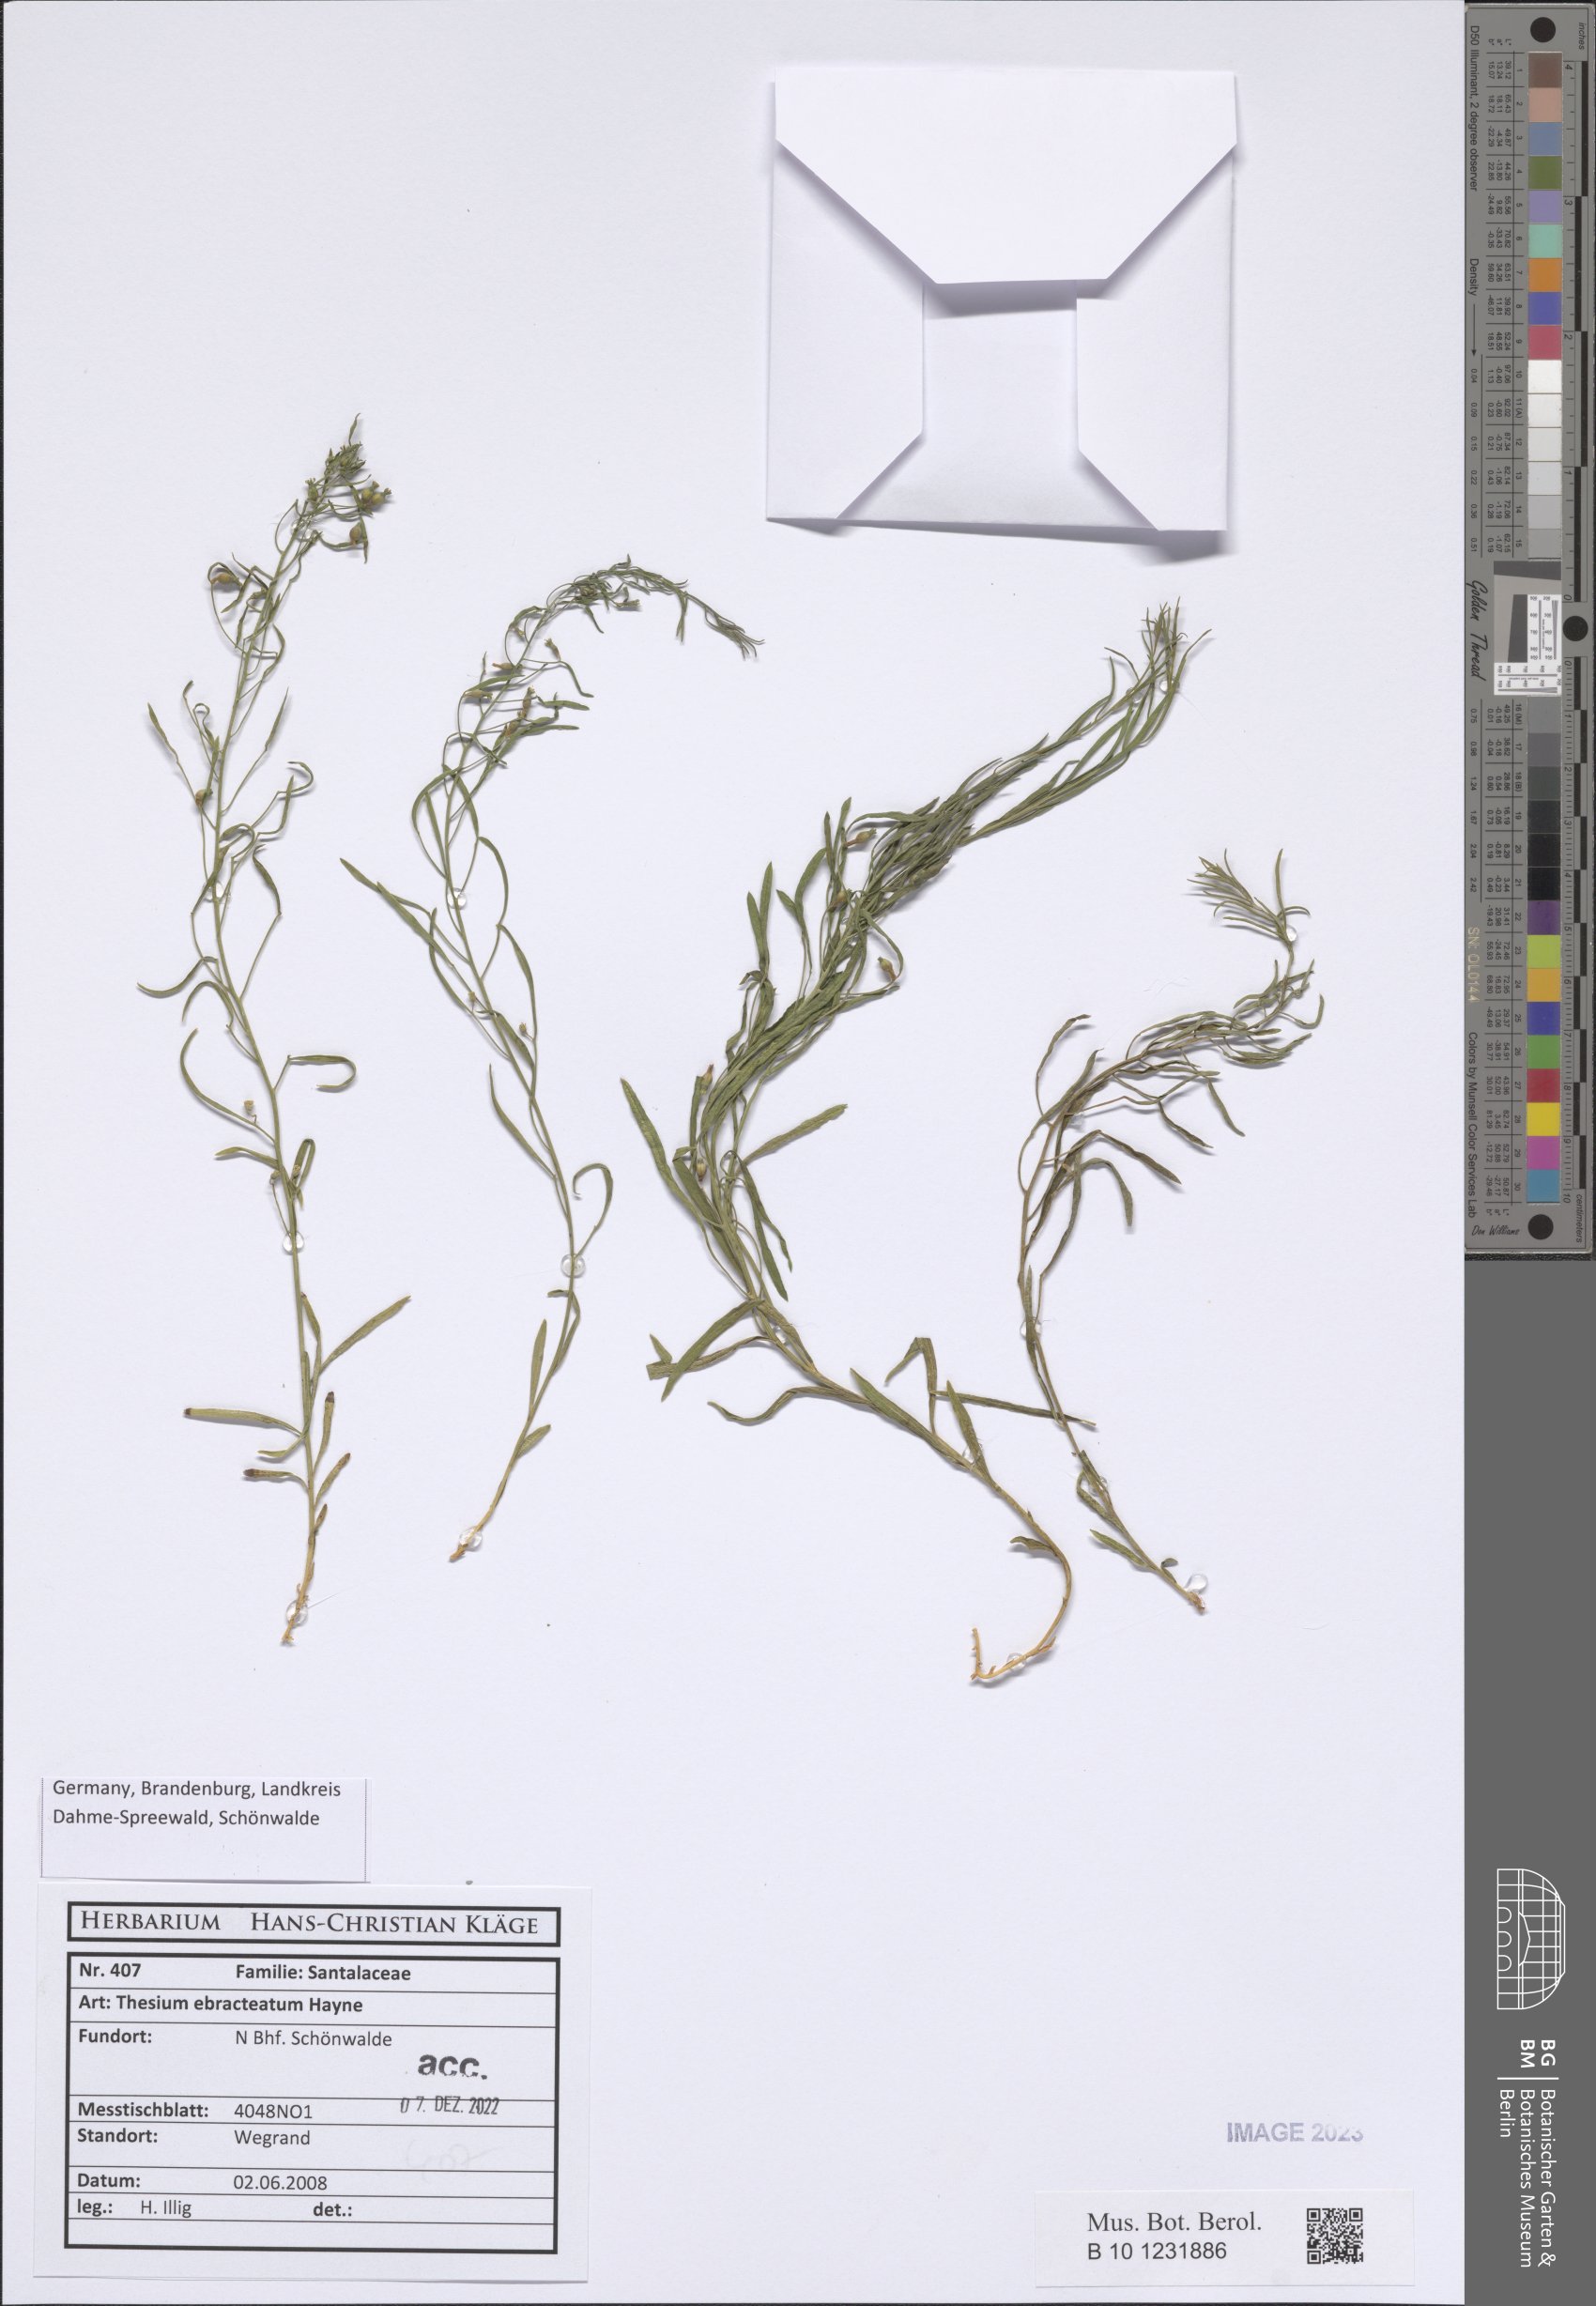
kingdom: Plantae
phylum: Tracheophyta
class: Magnoliopsida
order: Santalales
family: Thesiaceae
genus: Thesium
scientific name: Thesium ebracteatum
